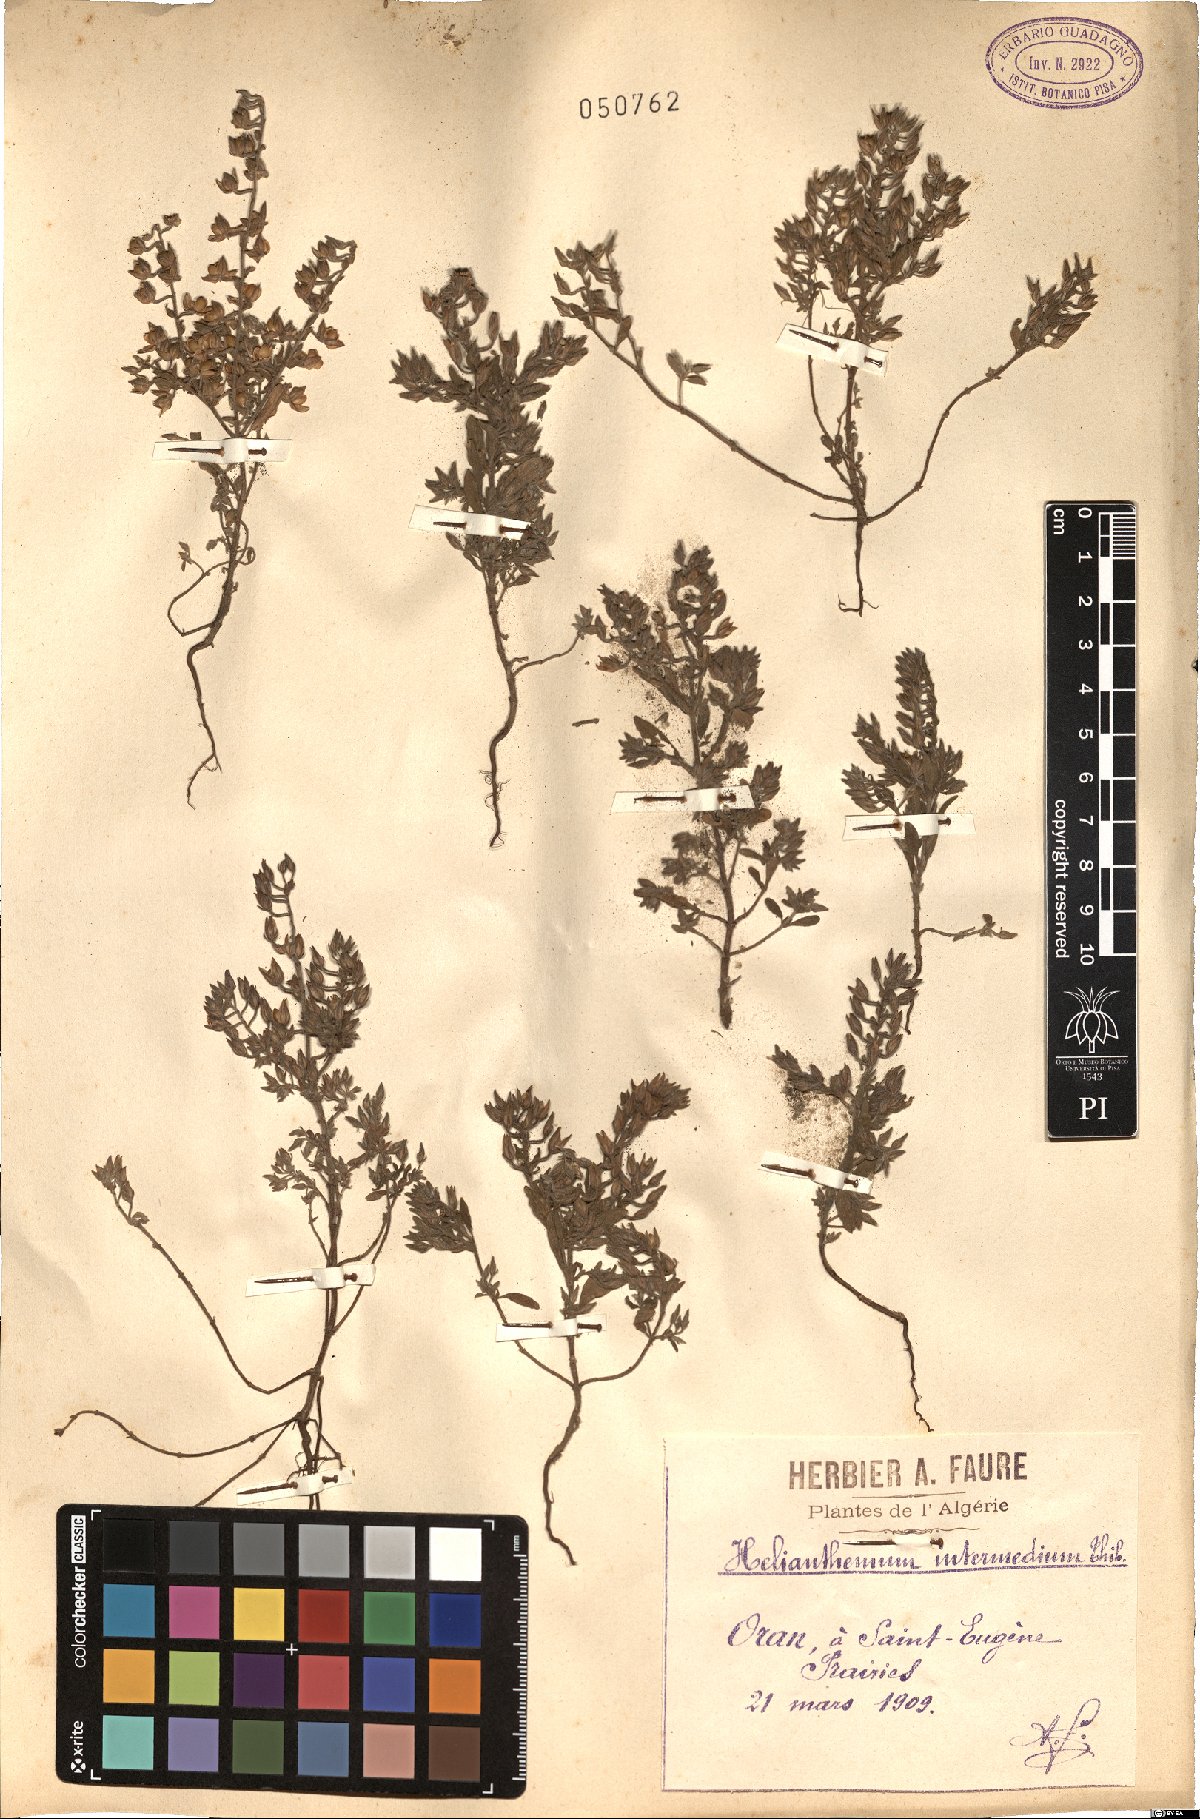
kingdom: Plantae
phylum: Tracheophyta
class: Magnoliopsida
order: Malvales
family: Cistaceae
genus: Helianthemum
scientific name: Helianthemum salicifolium
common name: Willowleaf frostweed
